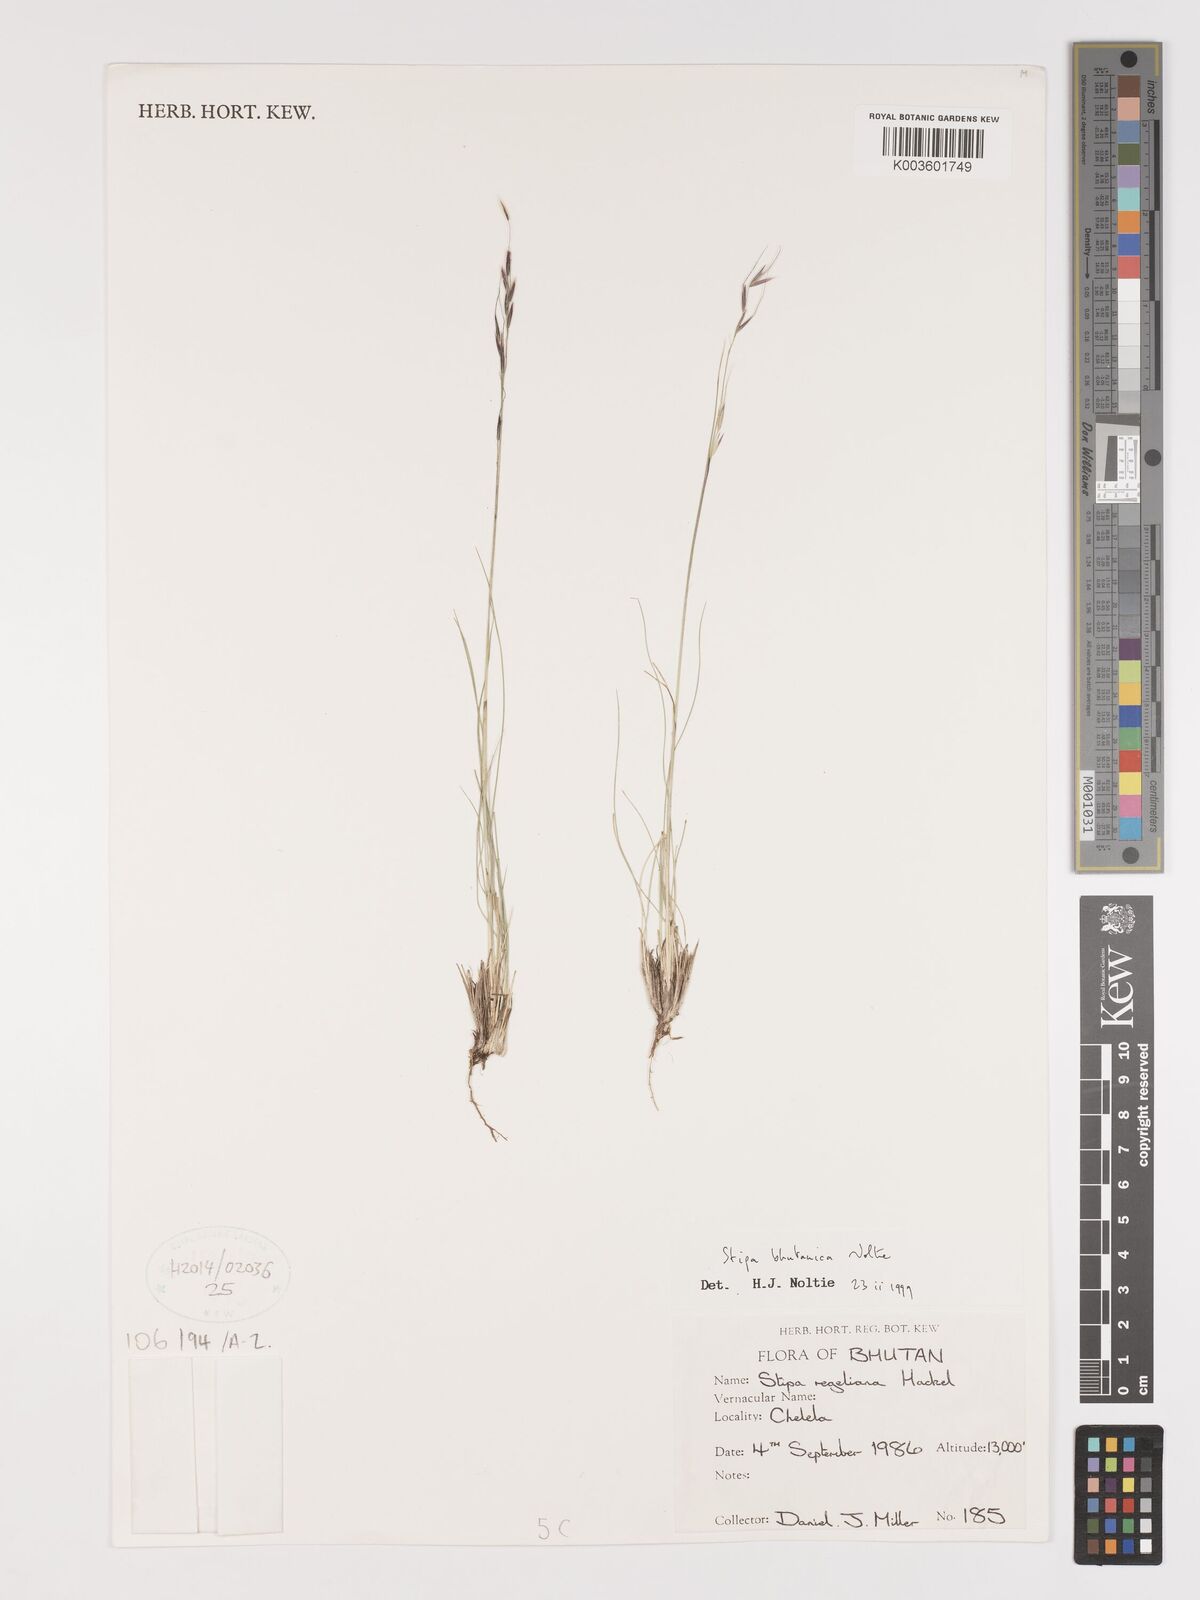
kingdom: Plantae
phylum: Tracheophyta
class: Liliopsida
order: Poales
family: Poaceae
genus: Ptilagrostis
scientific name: Ptilagrostis bhutanica
